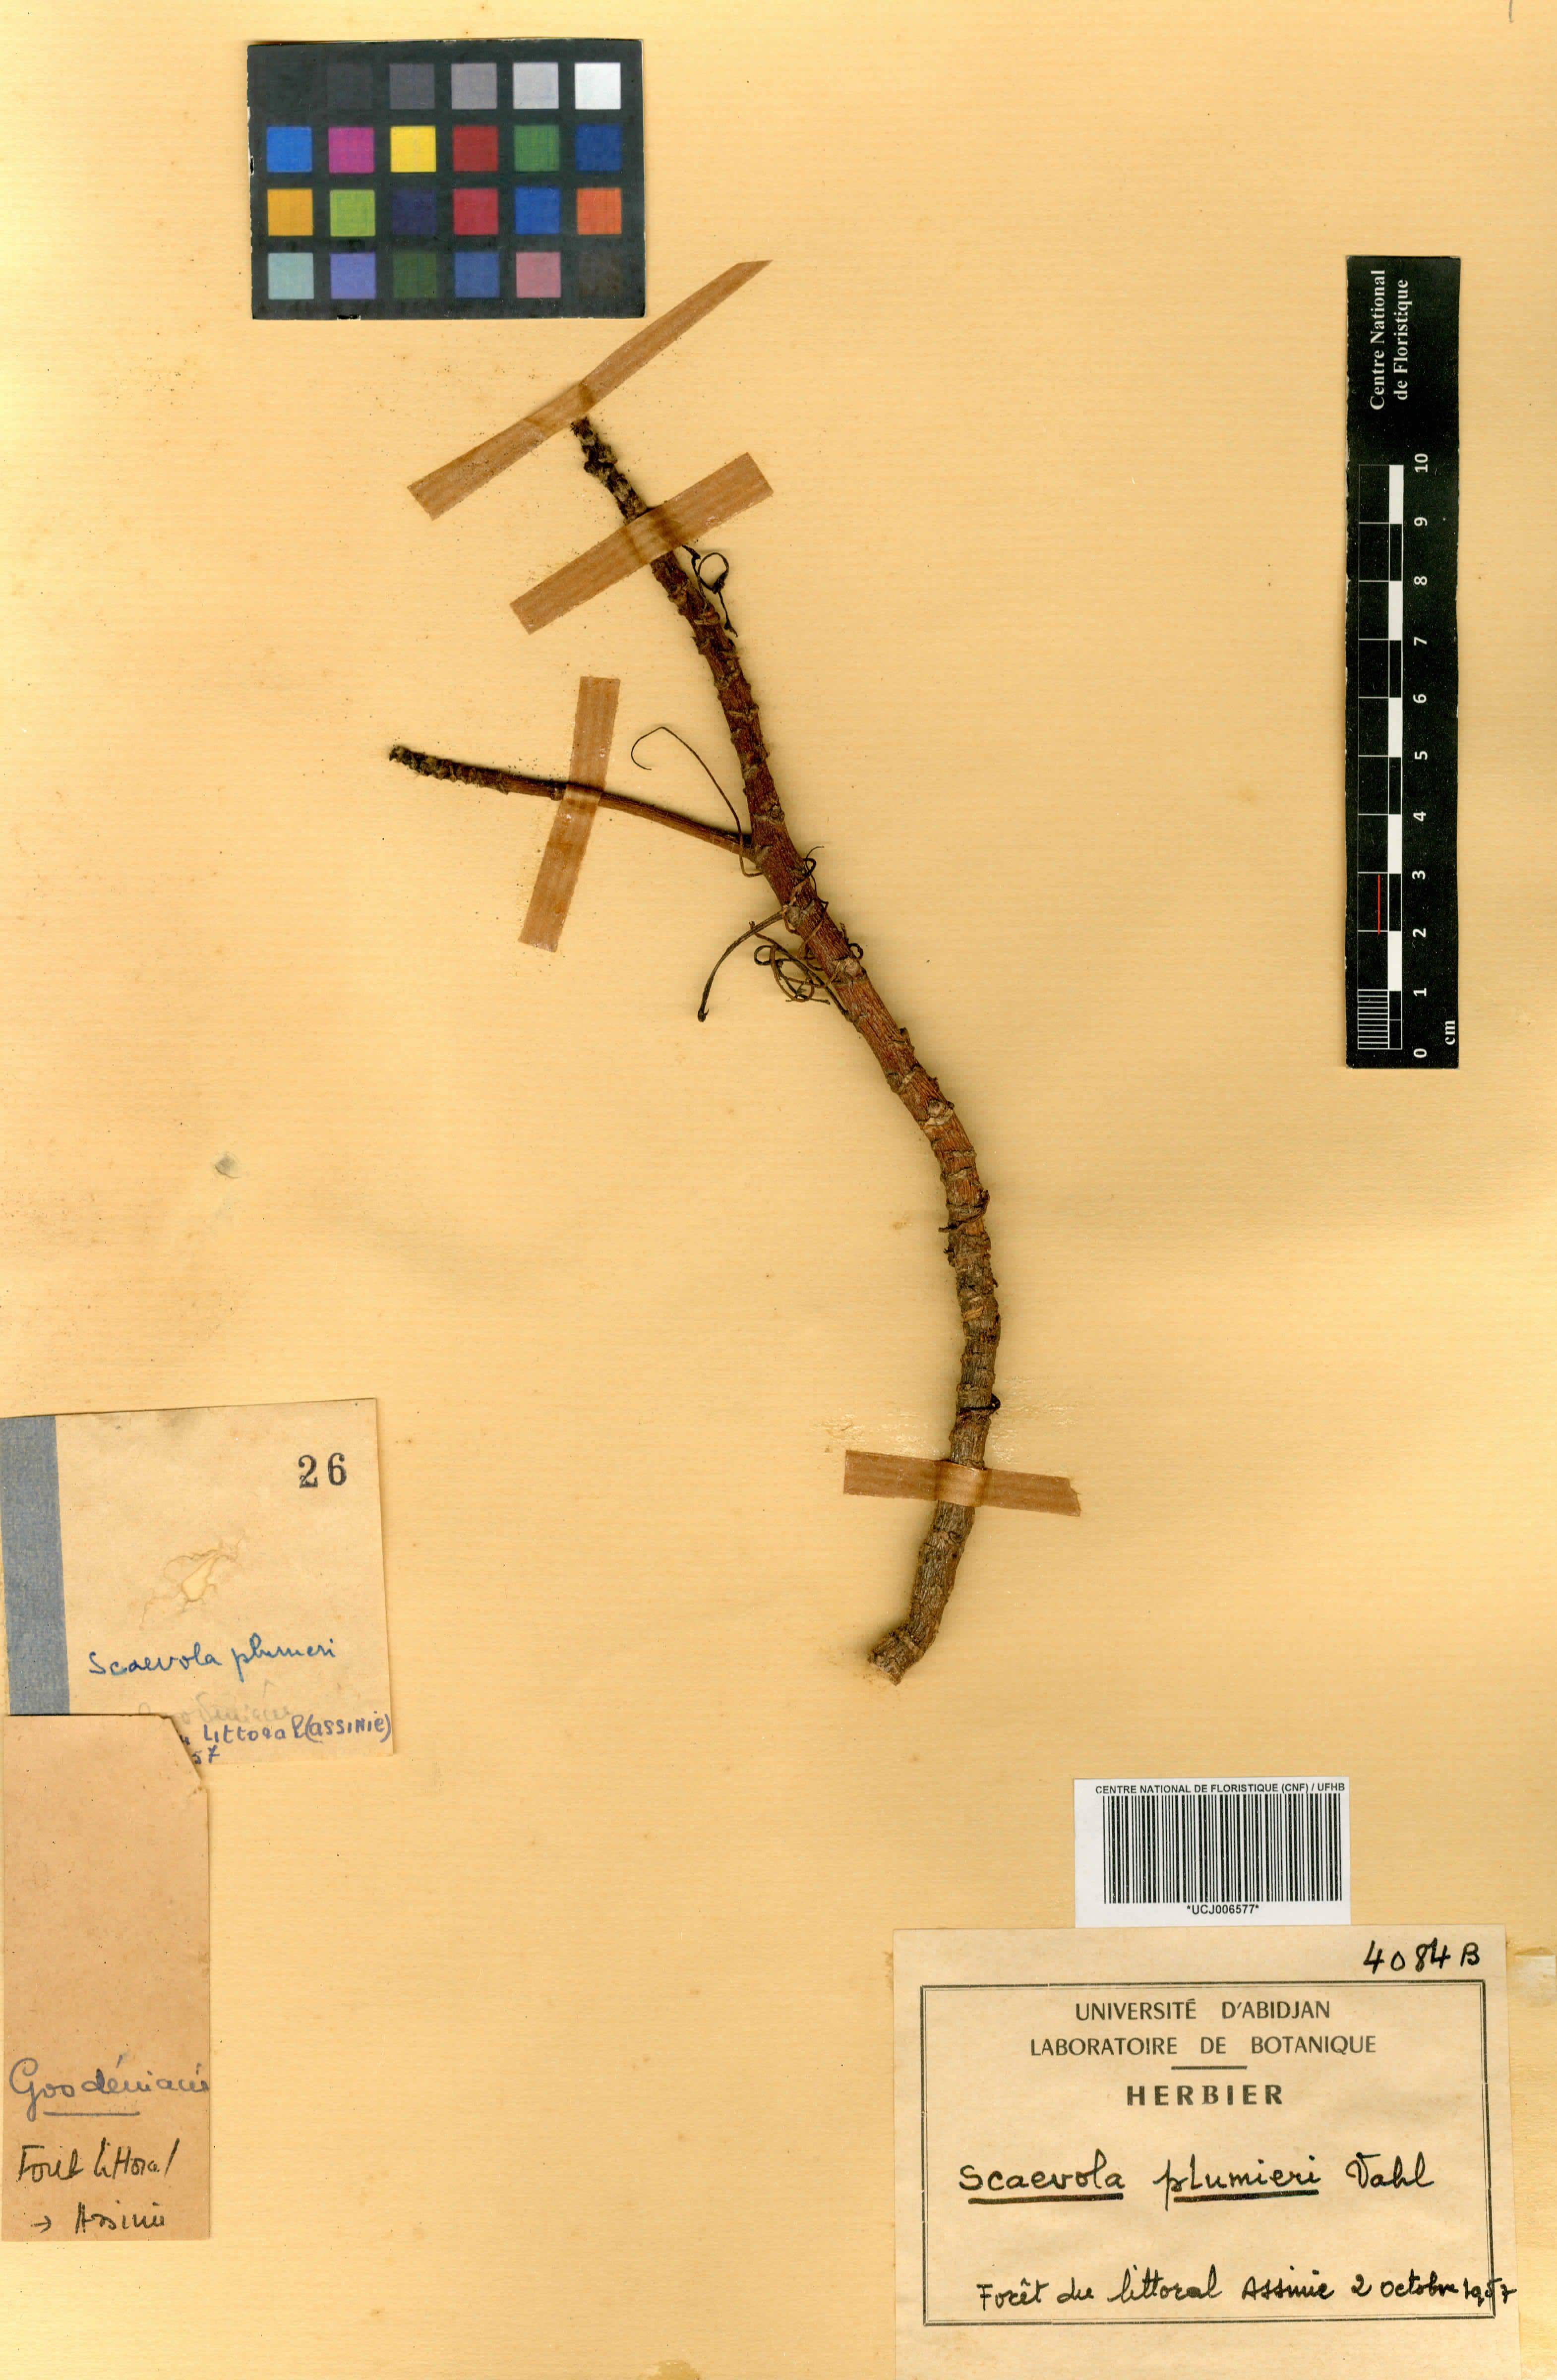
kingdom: Plantae
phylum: Tracheophyta
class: Magnoliopsida
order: Asterales
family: Goodeniaceae
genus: Scaevola
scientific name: Scaevola plumieri
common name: Gull feed
